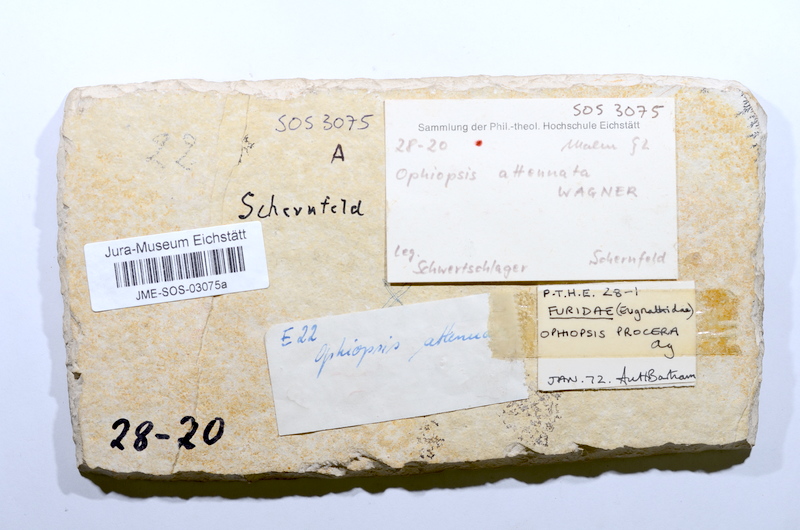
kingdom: Animalia
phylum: Chordata
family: Ophiopsiellidae
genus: Ophiopsiella
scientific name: Ophiopsiella attenuata
